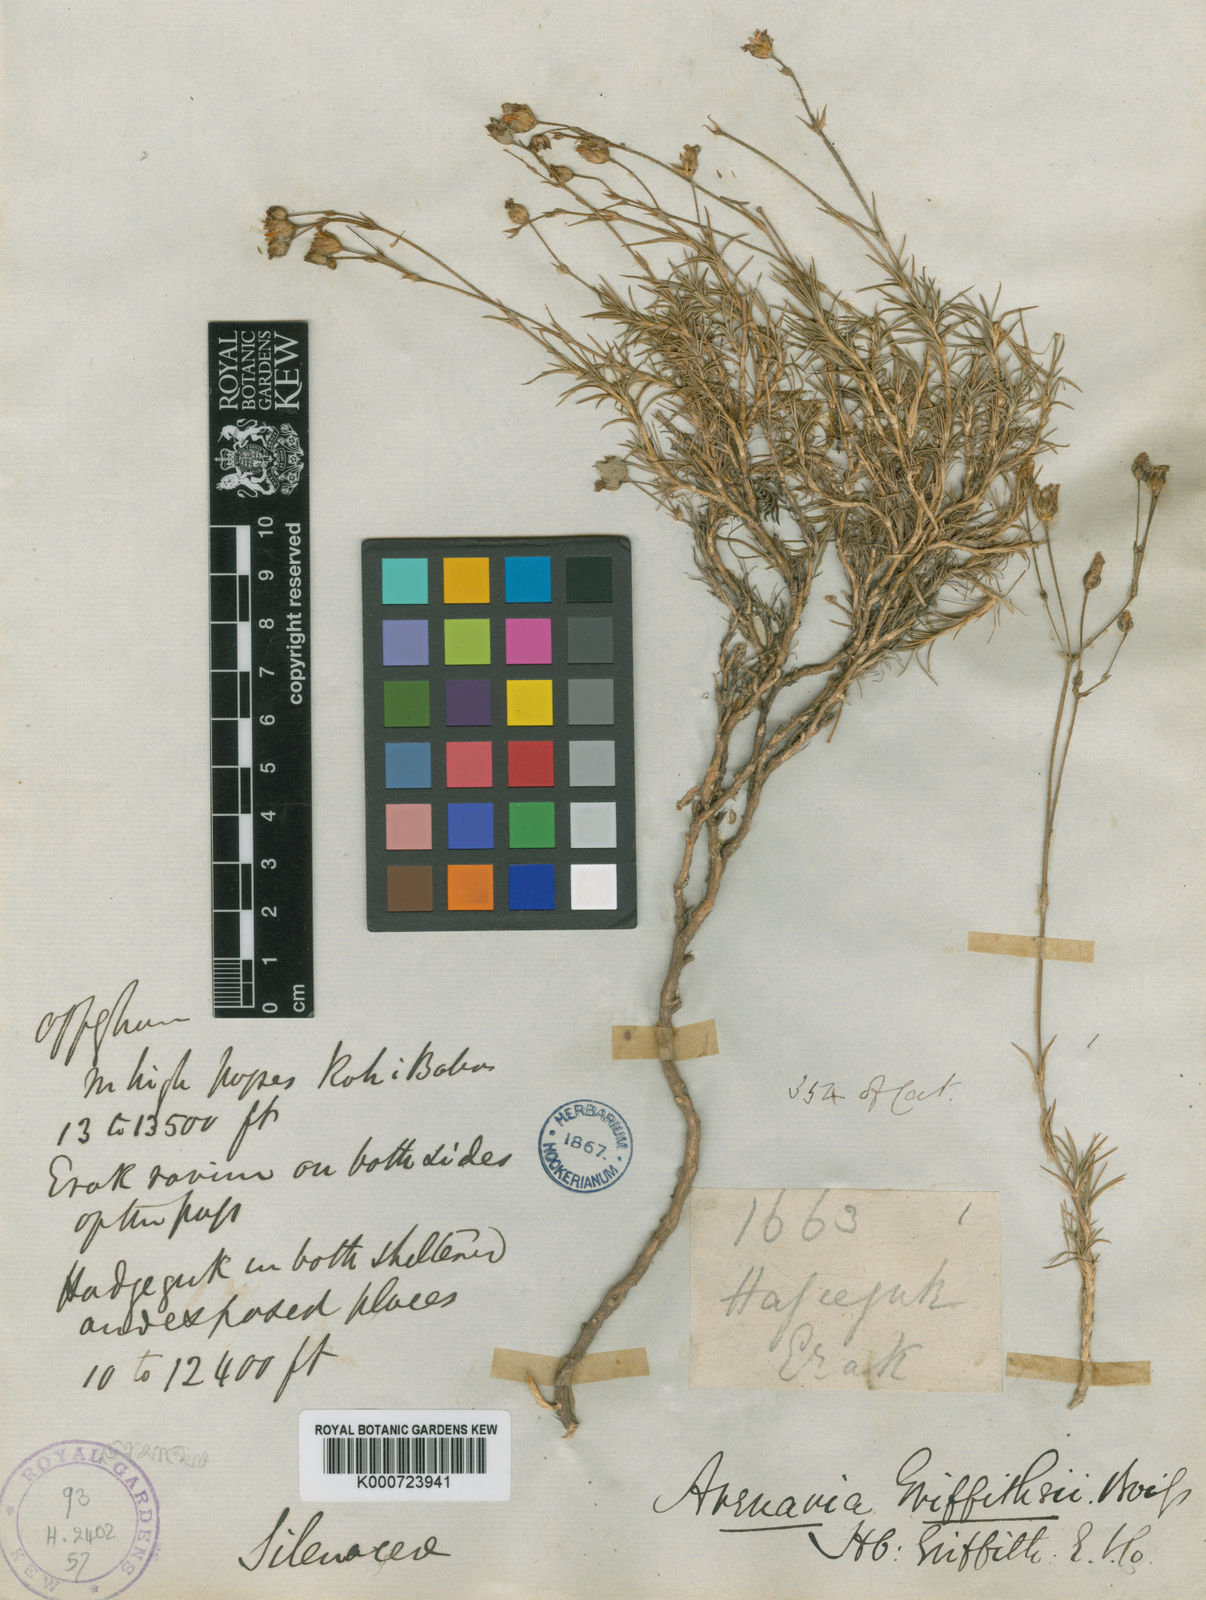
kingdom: Plantae
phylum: Tracheophyta
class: Magnoliopsida
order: Caryophyllales
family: Caryophyllaceae
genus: Eremogone
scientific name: Eremogone griffithii
